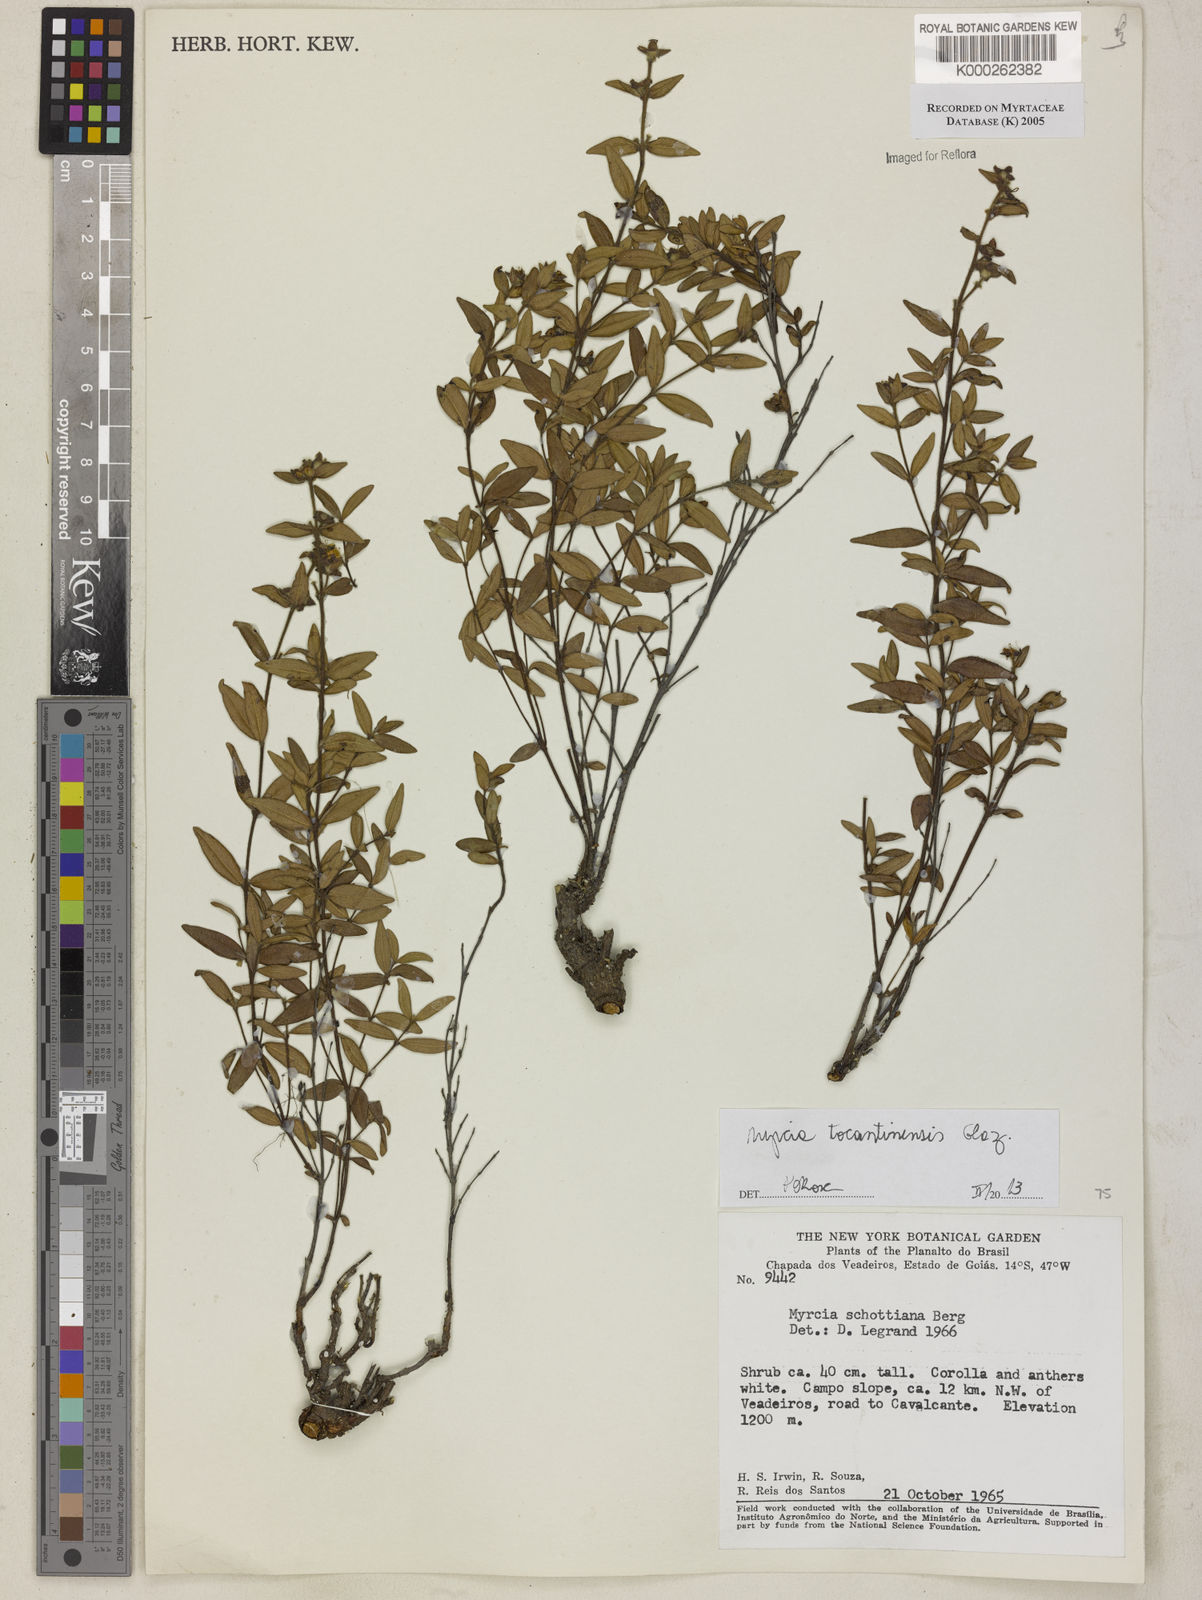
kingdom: Plantae
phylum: Tracheophyta
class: Magnoliopsida
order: Myrtales
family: Myrtaceae
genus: Myrcia
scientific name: Myrcia schottiana
